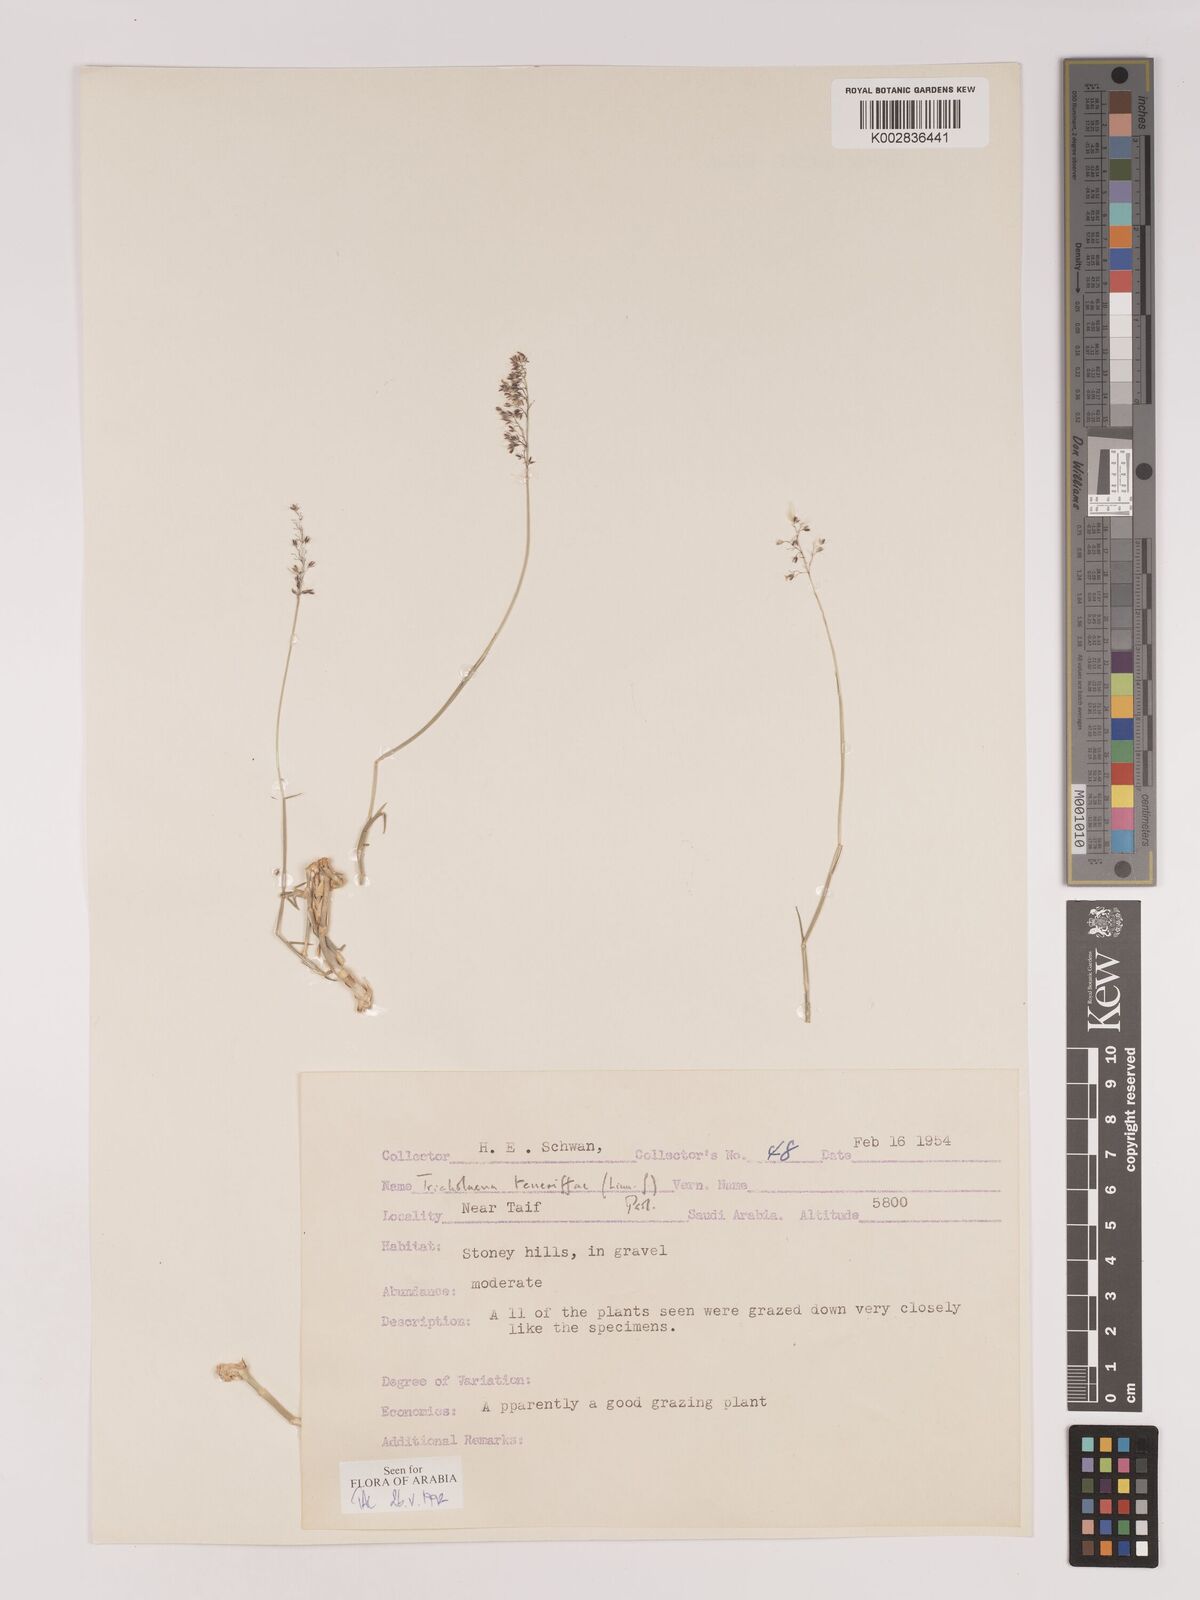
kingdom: Plantae
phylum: Tracheophyta
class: Liliopsida
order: Poales
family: Poaceae
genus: Tricholaena
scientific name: Tricholaena teneriffae
